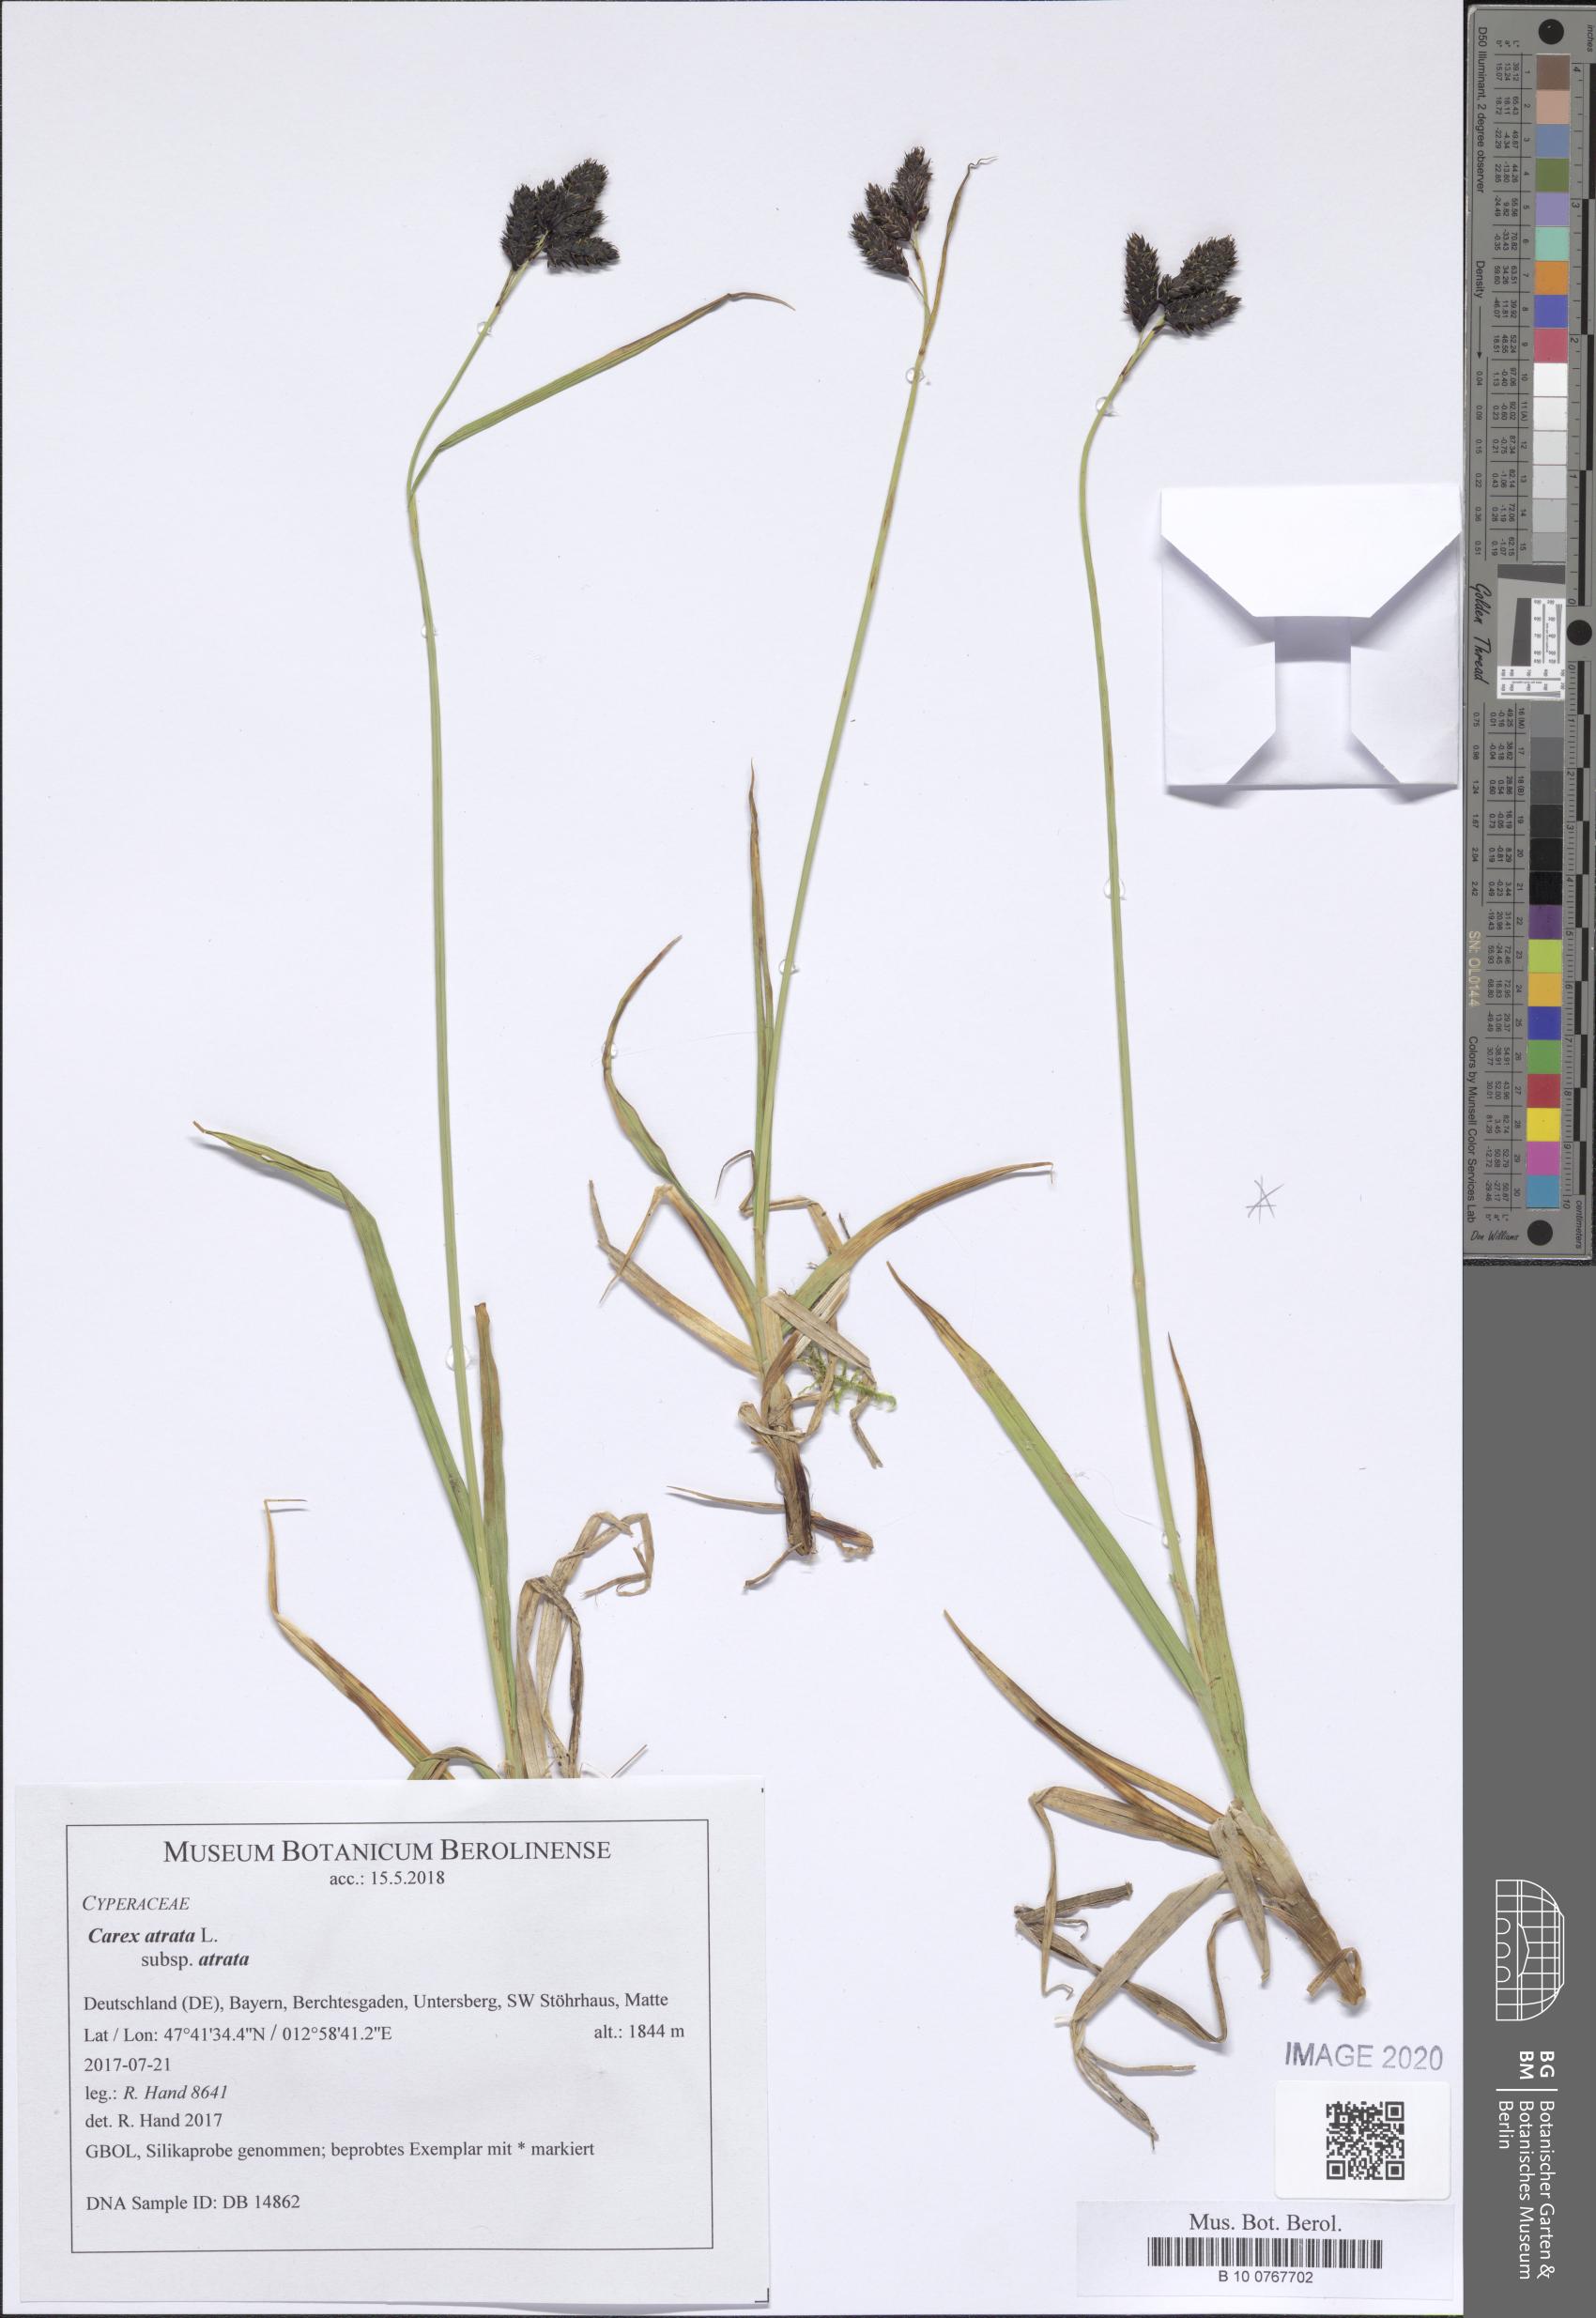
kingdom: Plantae
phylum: Tracheophyta
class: Liliopsida
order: Poales
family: Cyperaceae
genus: Carex
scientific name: Carex atrata
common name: Black alpine sedge
